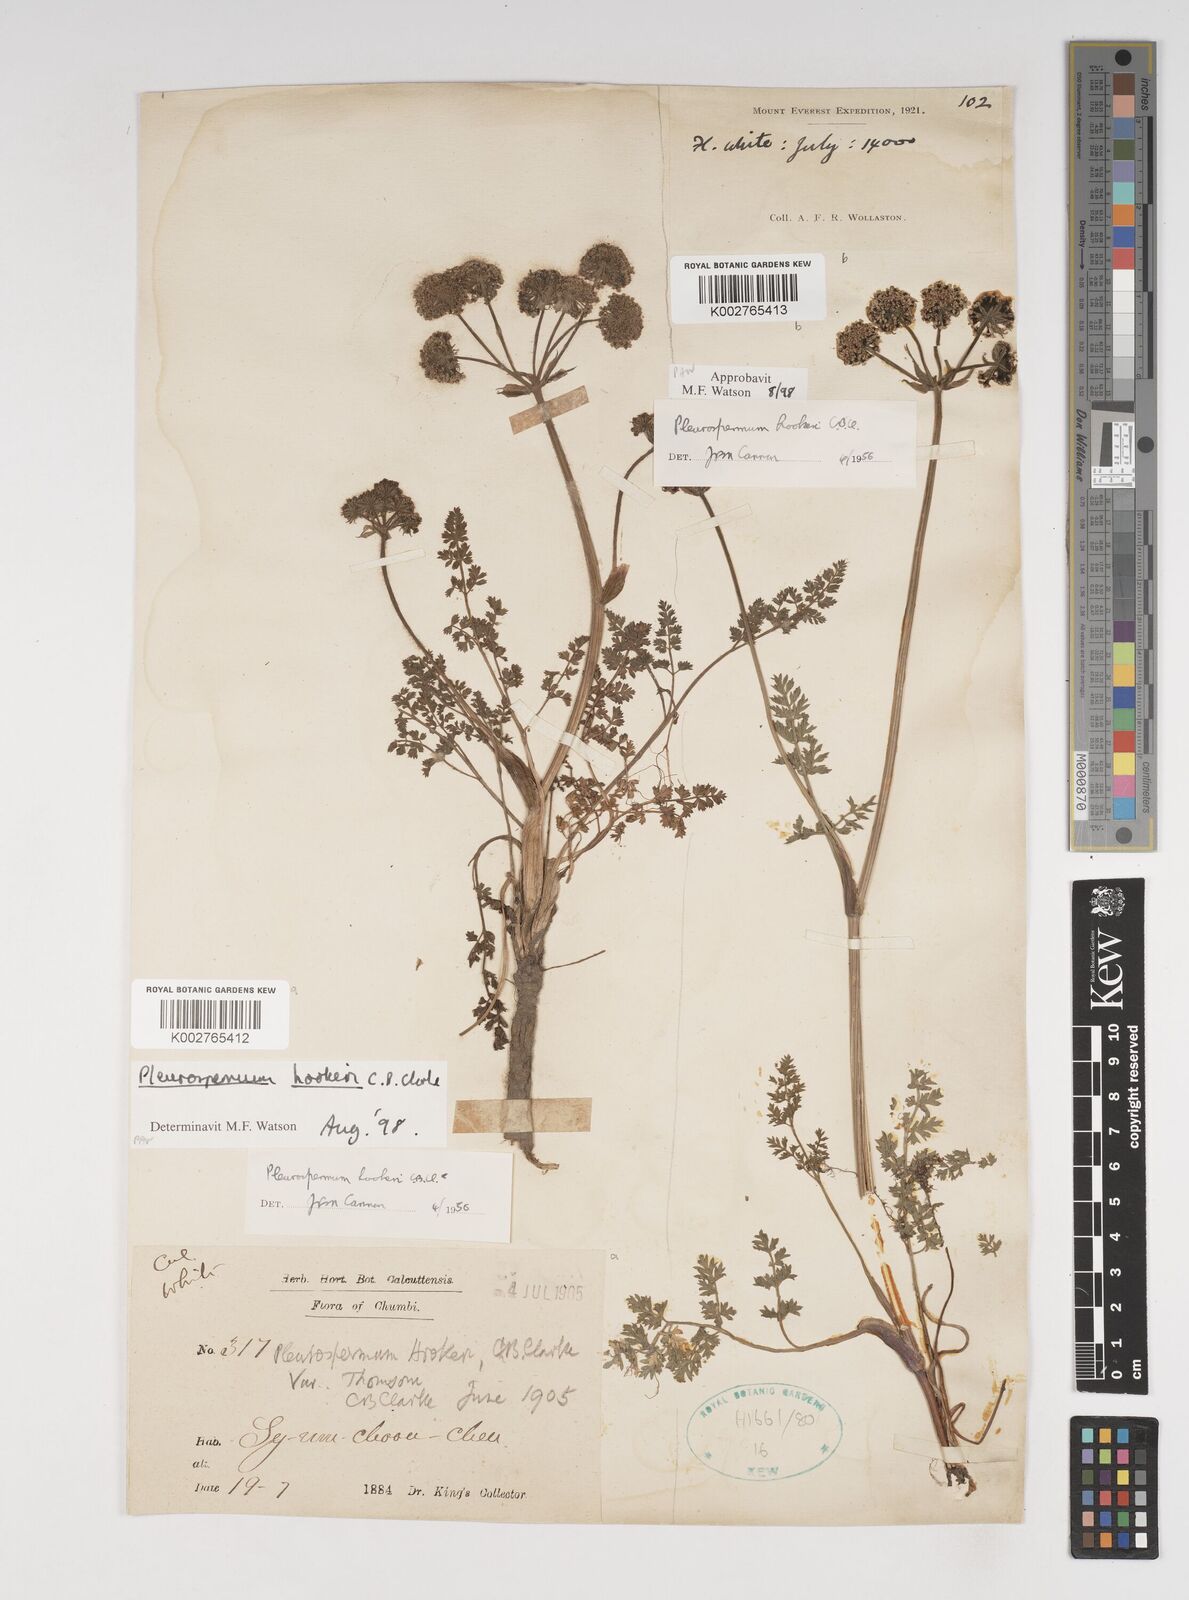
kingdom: Plantae
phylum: Tracheophyta
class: Magnoliopsida
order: Apiales
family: Apiaceae
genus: Pleurospermum
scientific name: Pleurospermum hookeri
